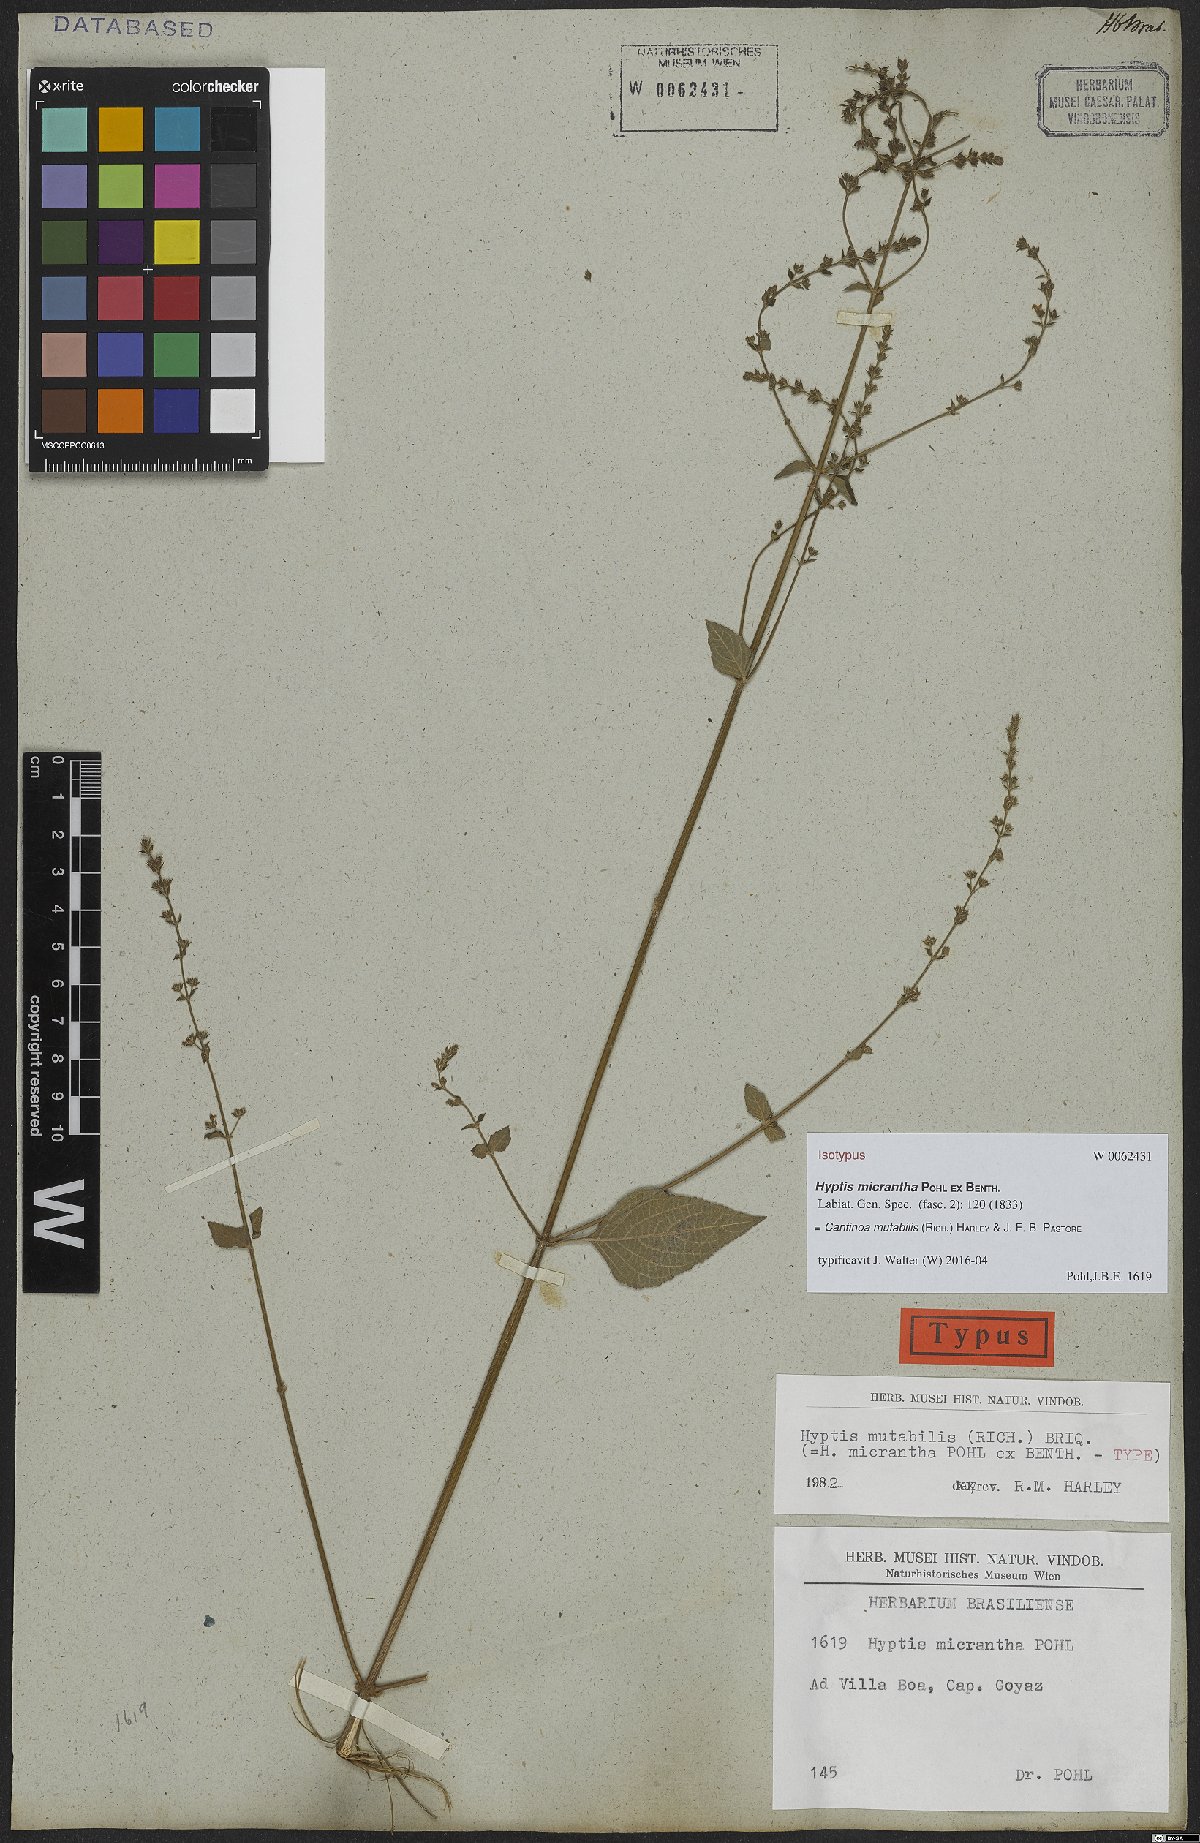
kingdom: Plantae
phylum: Tracheophyta
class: Magnoliopsida
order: Lamiales
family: Lamiaceae
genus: Cantinoa
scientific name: Cantinoa mutabilis
